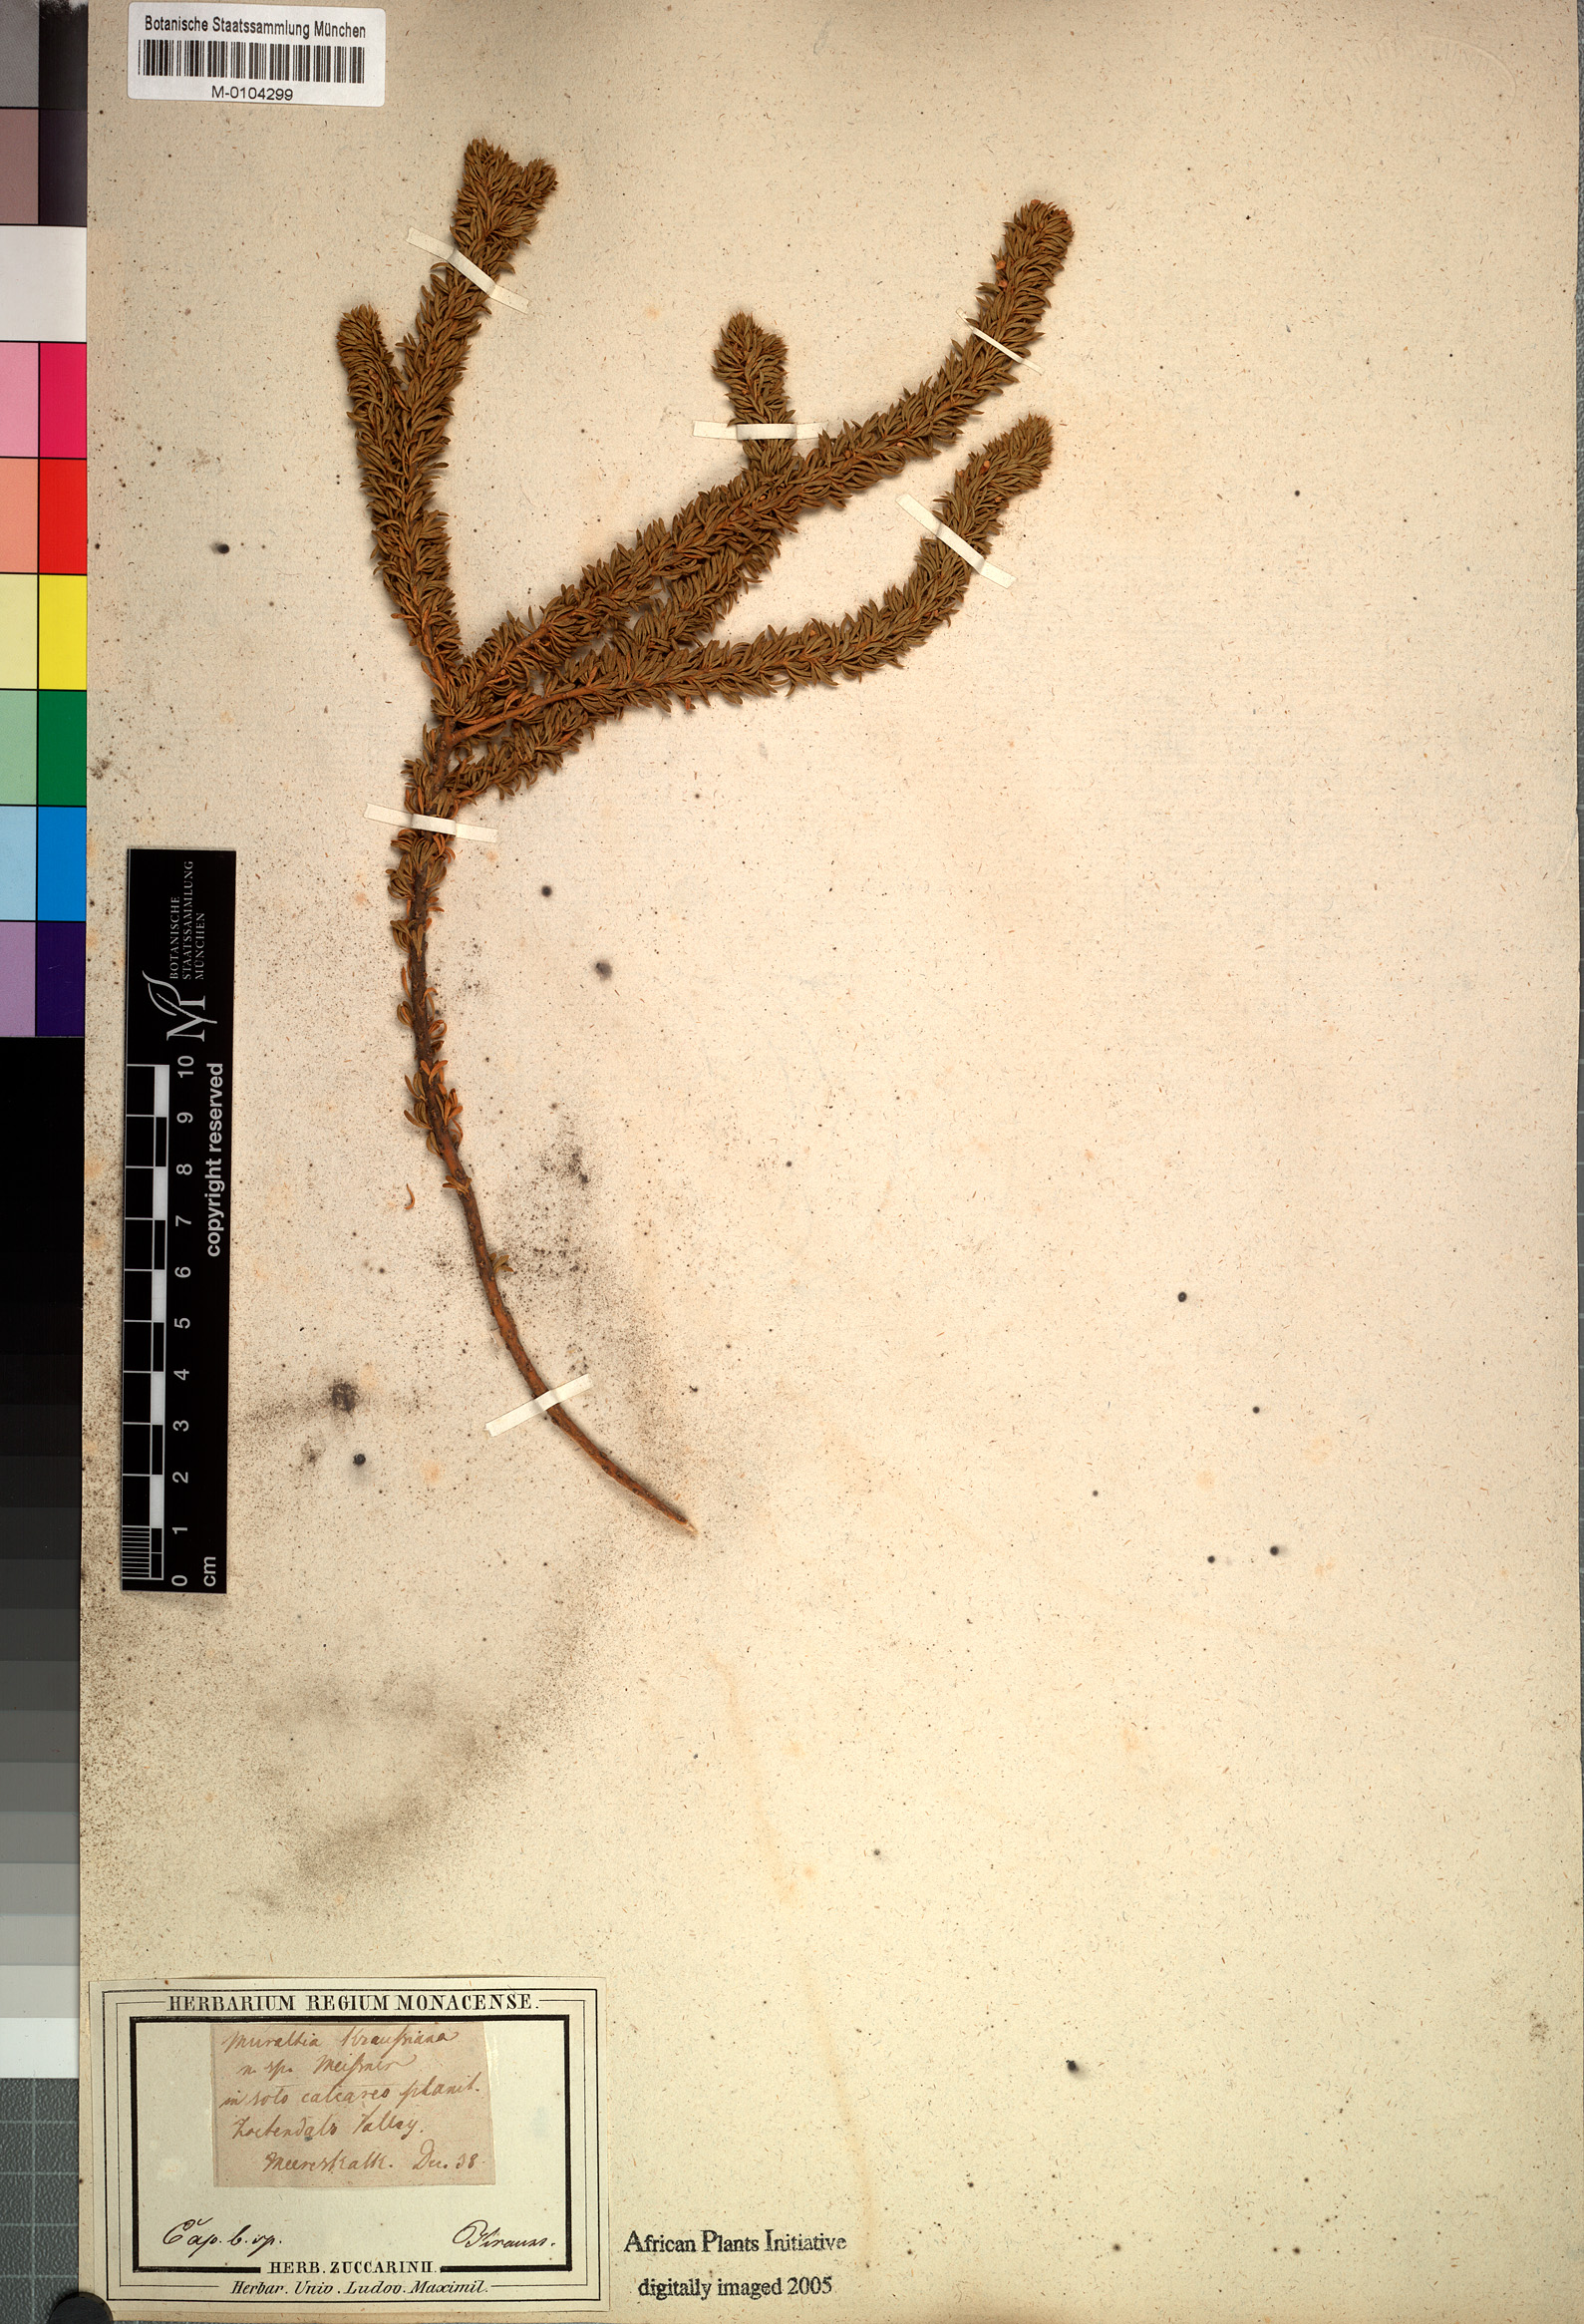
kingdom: Plantae
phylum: Tracheophyta
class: Magnoliopsida
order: Fabales
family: Polygalaceae
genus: Muraltia
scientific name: Muraltia mitior
